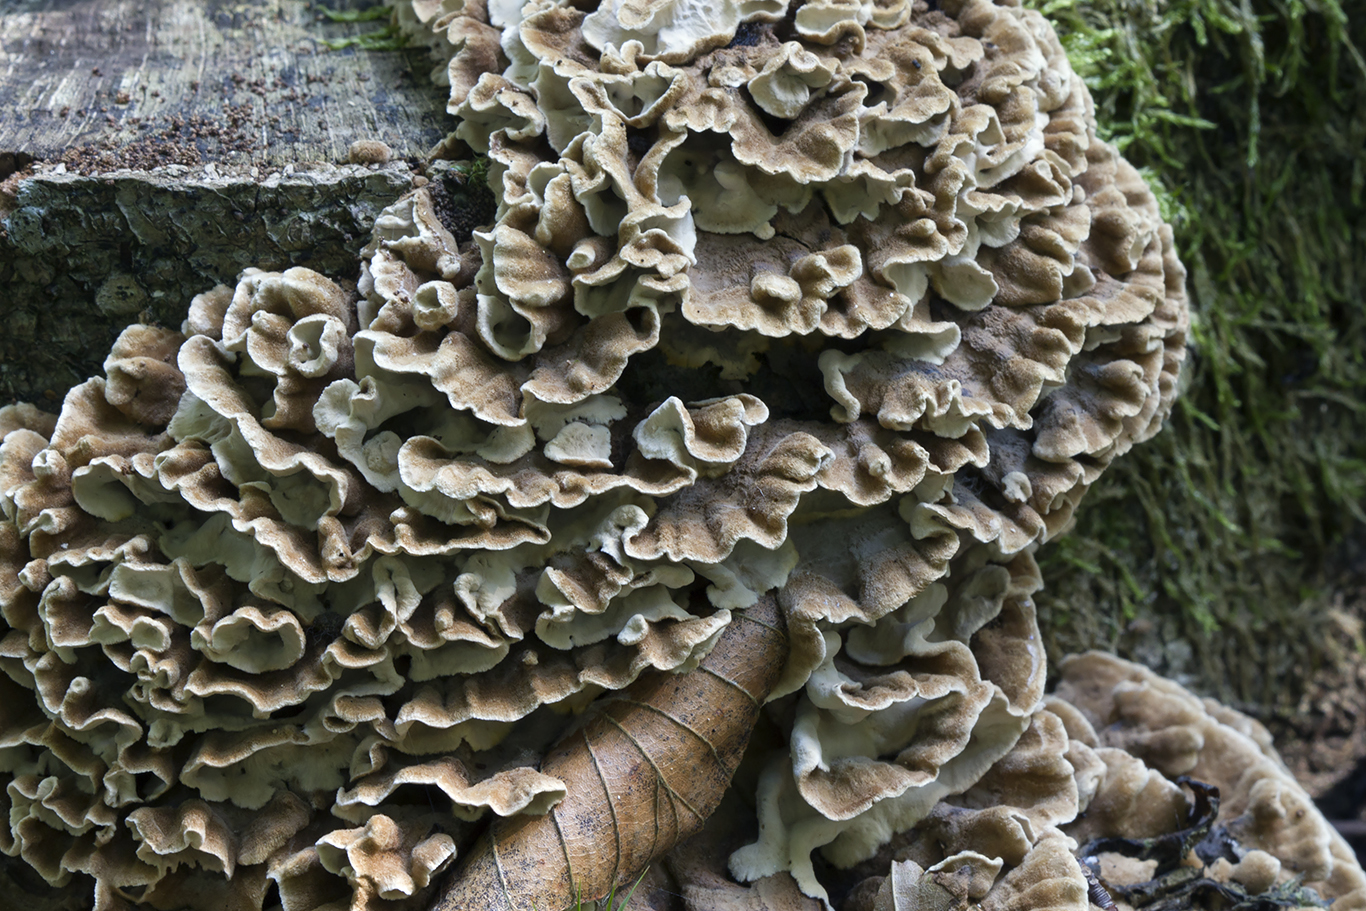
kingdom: Fungi
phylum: Basidiomycota
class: Agaricomycetes
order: Russulales
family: Hericiaceae
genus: Laxitextum
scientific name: Laxitextum bicolor
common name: tvefarvet filtskind
